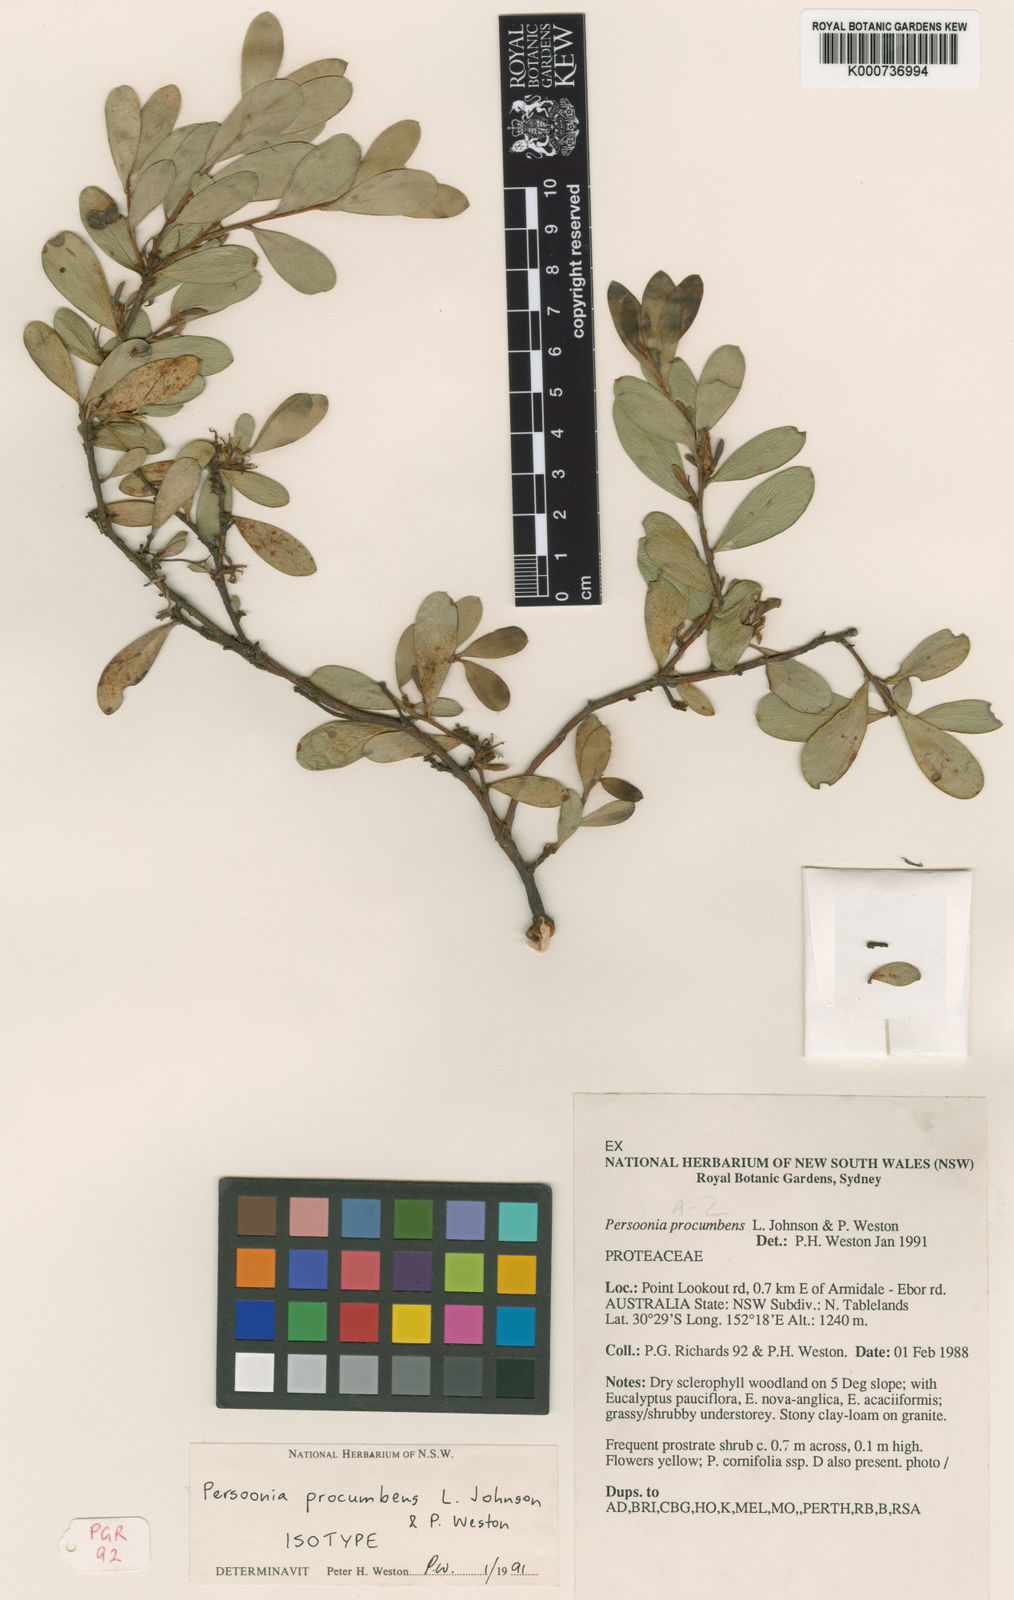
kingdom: Plantae
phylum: Tracheophyta
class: Magnoliopsida
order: Proteales
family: Proteaceae
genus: Persoonia
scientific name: Persoonia procumbens
